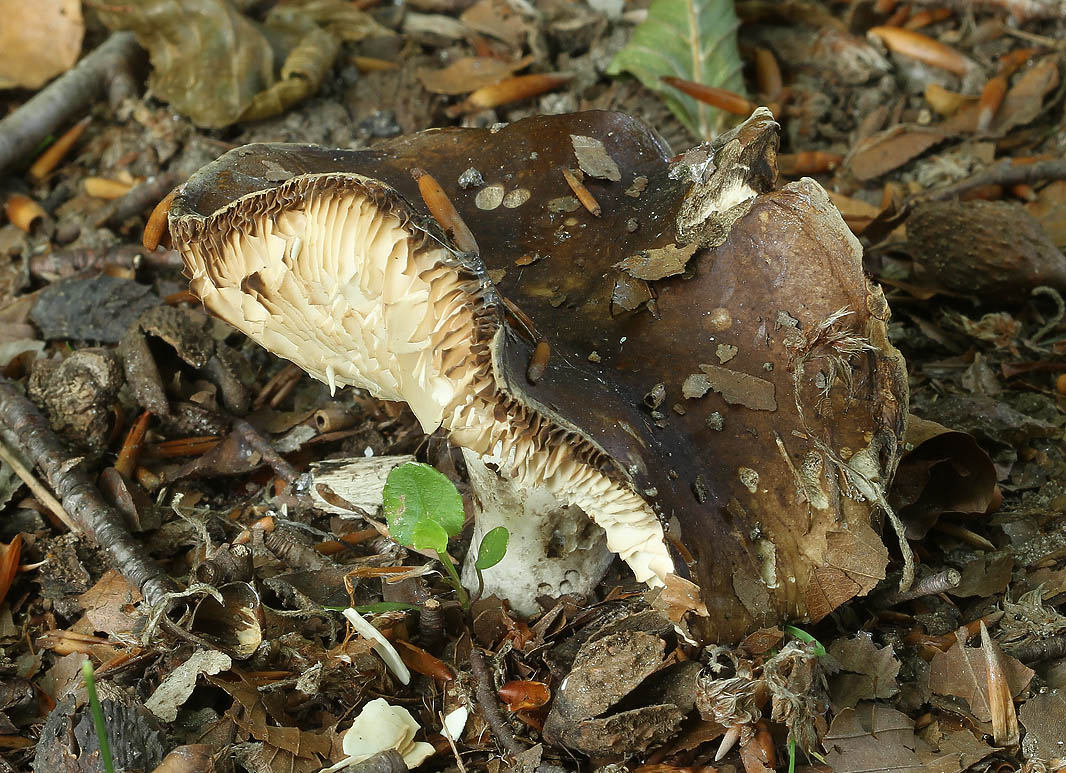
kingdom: Fungi
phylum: Basidiomycota
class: Agaricomycetes
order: Russulales
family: Russulaceae
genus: Russula
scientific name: Russula acrifolia
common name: skarpbladet skørhat
